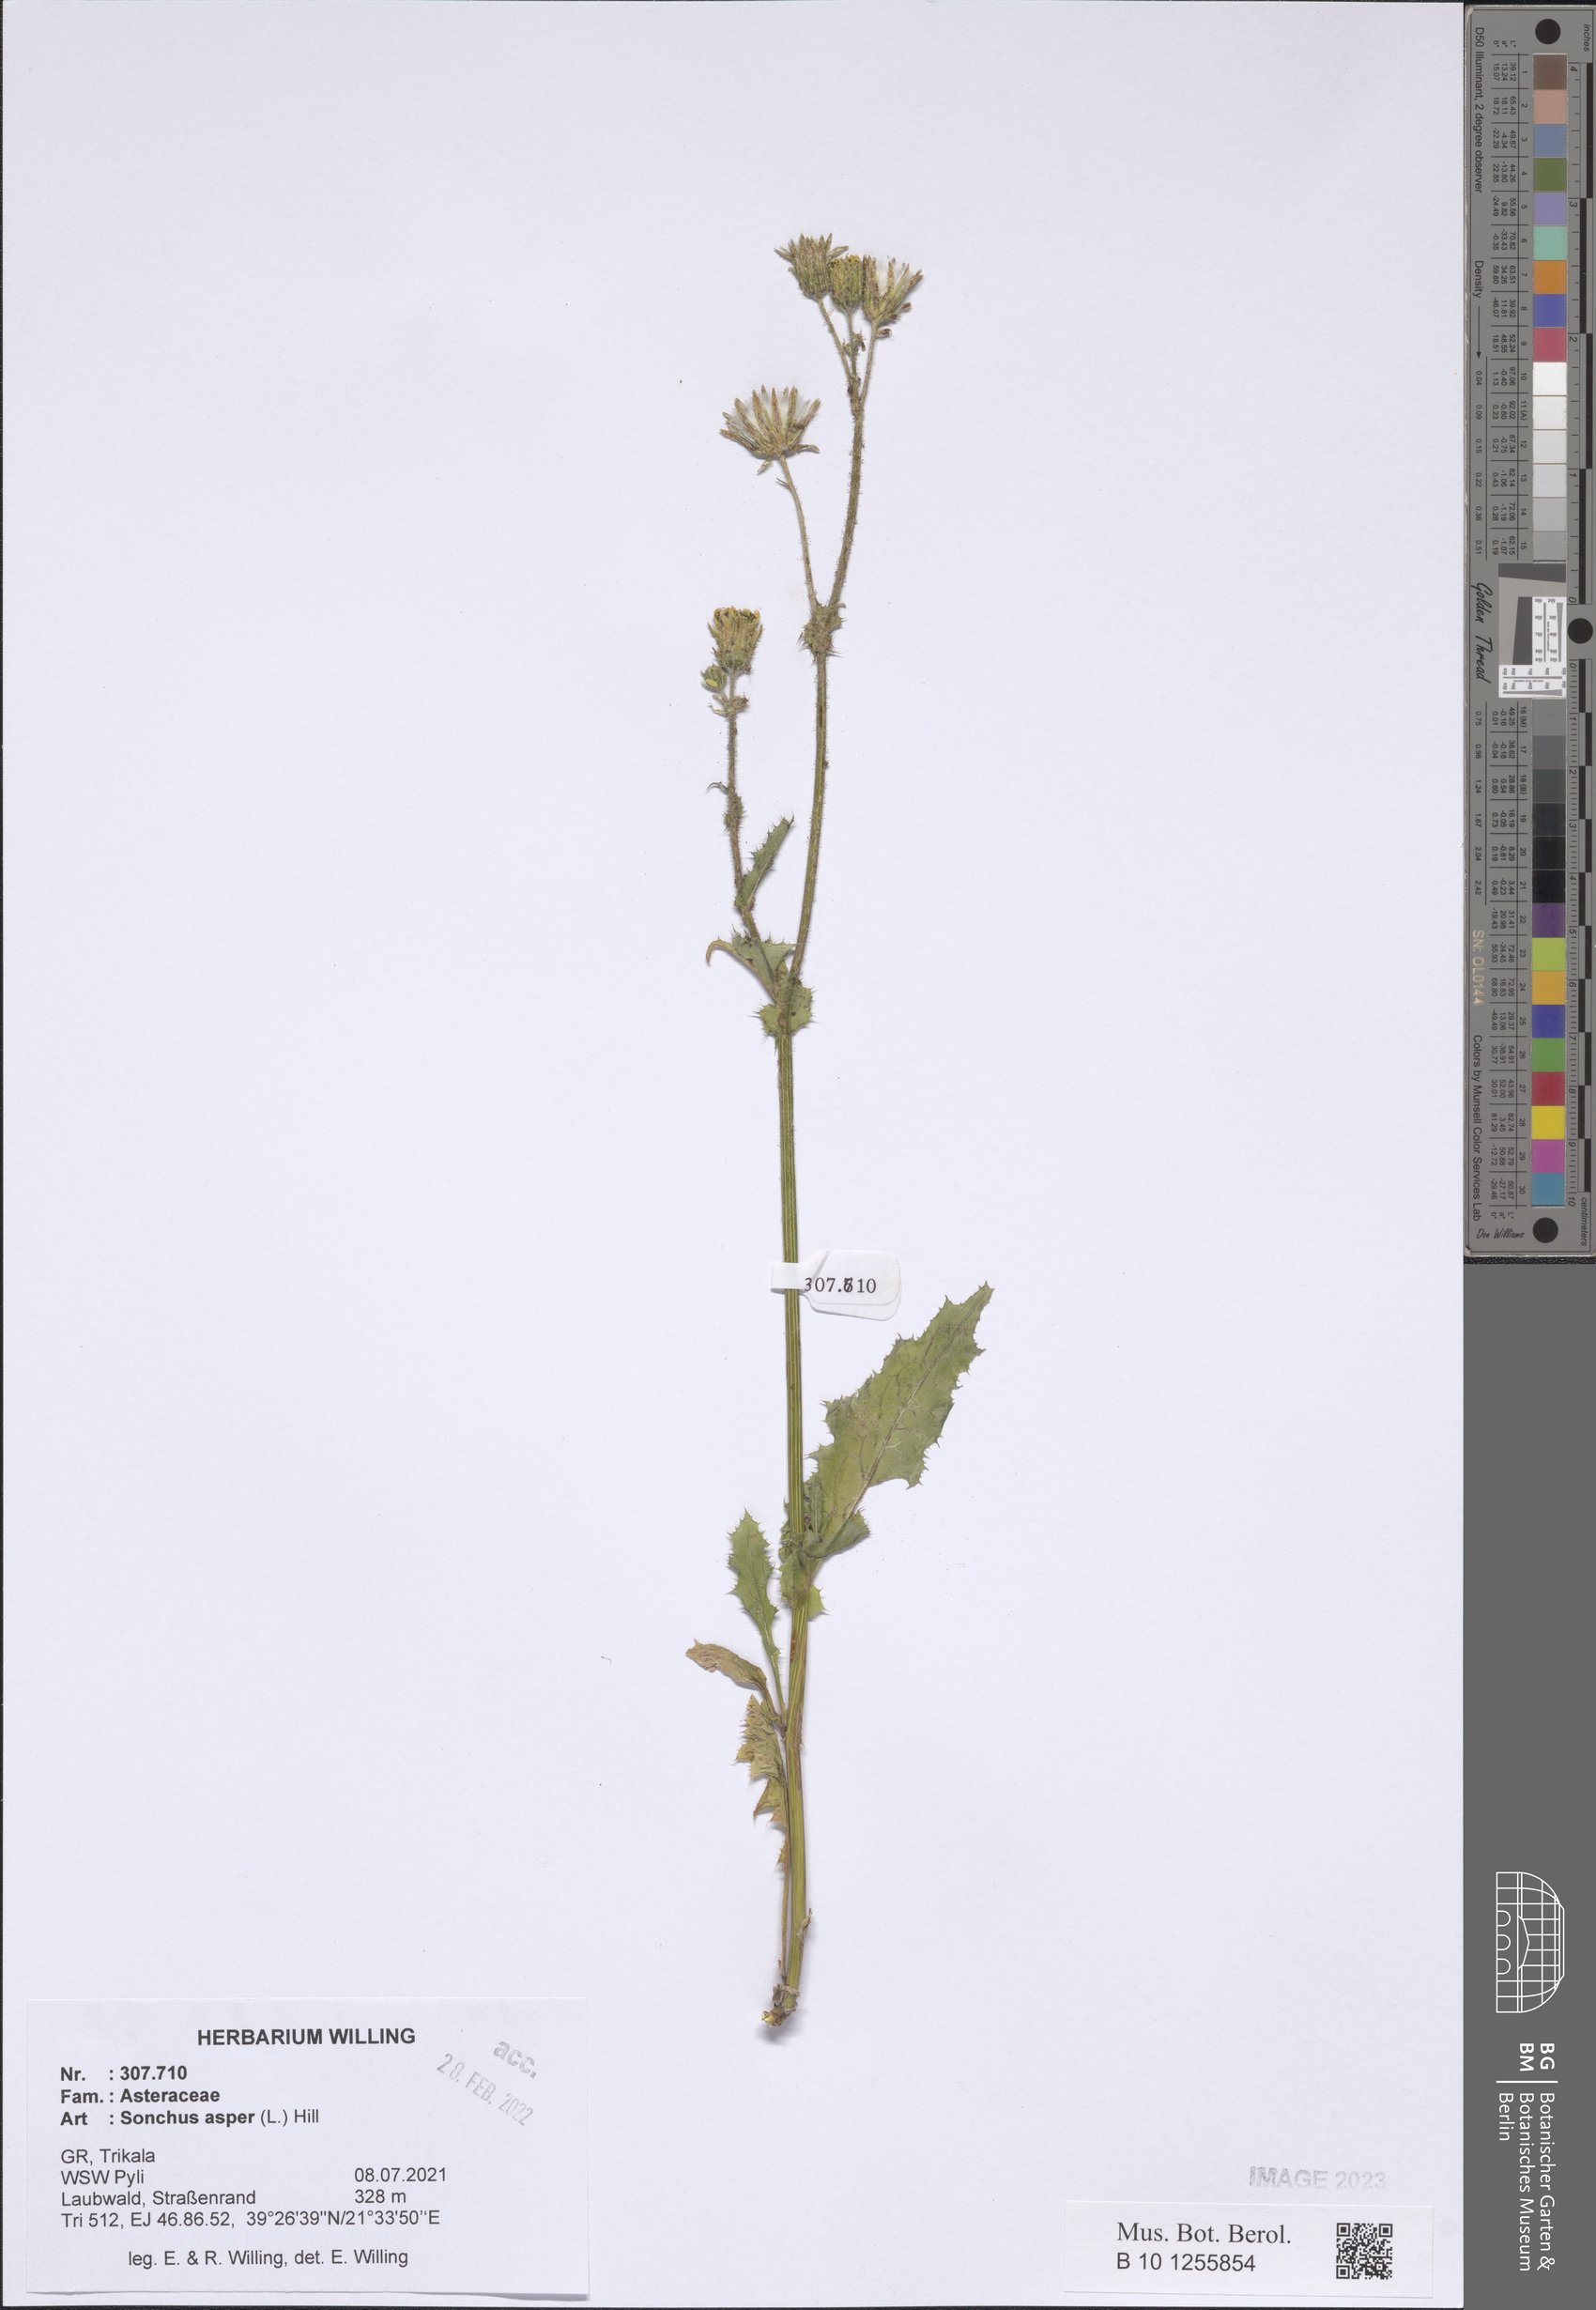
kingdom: Plantae
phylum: Tracheophyta
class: Magnoliopsida
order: Asterales
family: Asteraceae
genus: Sonchus
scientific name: Sonchus asper
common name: Prickly sow-thistle
